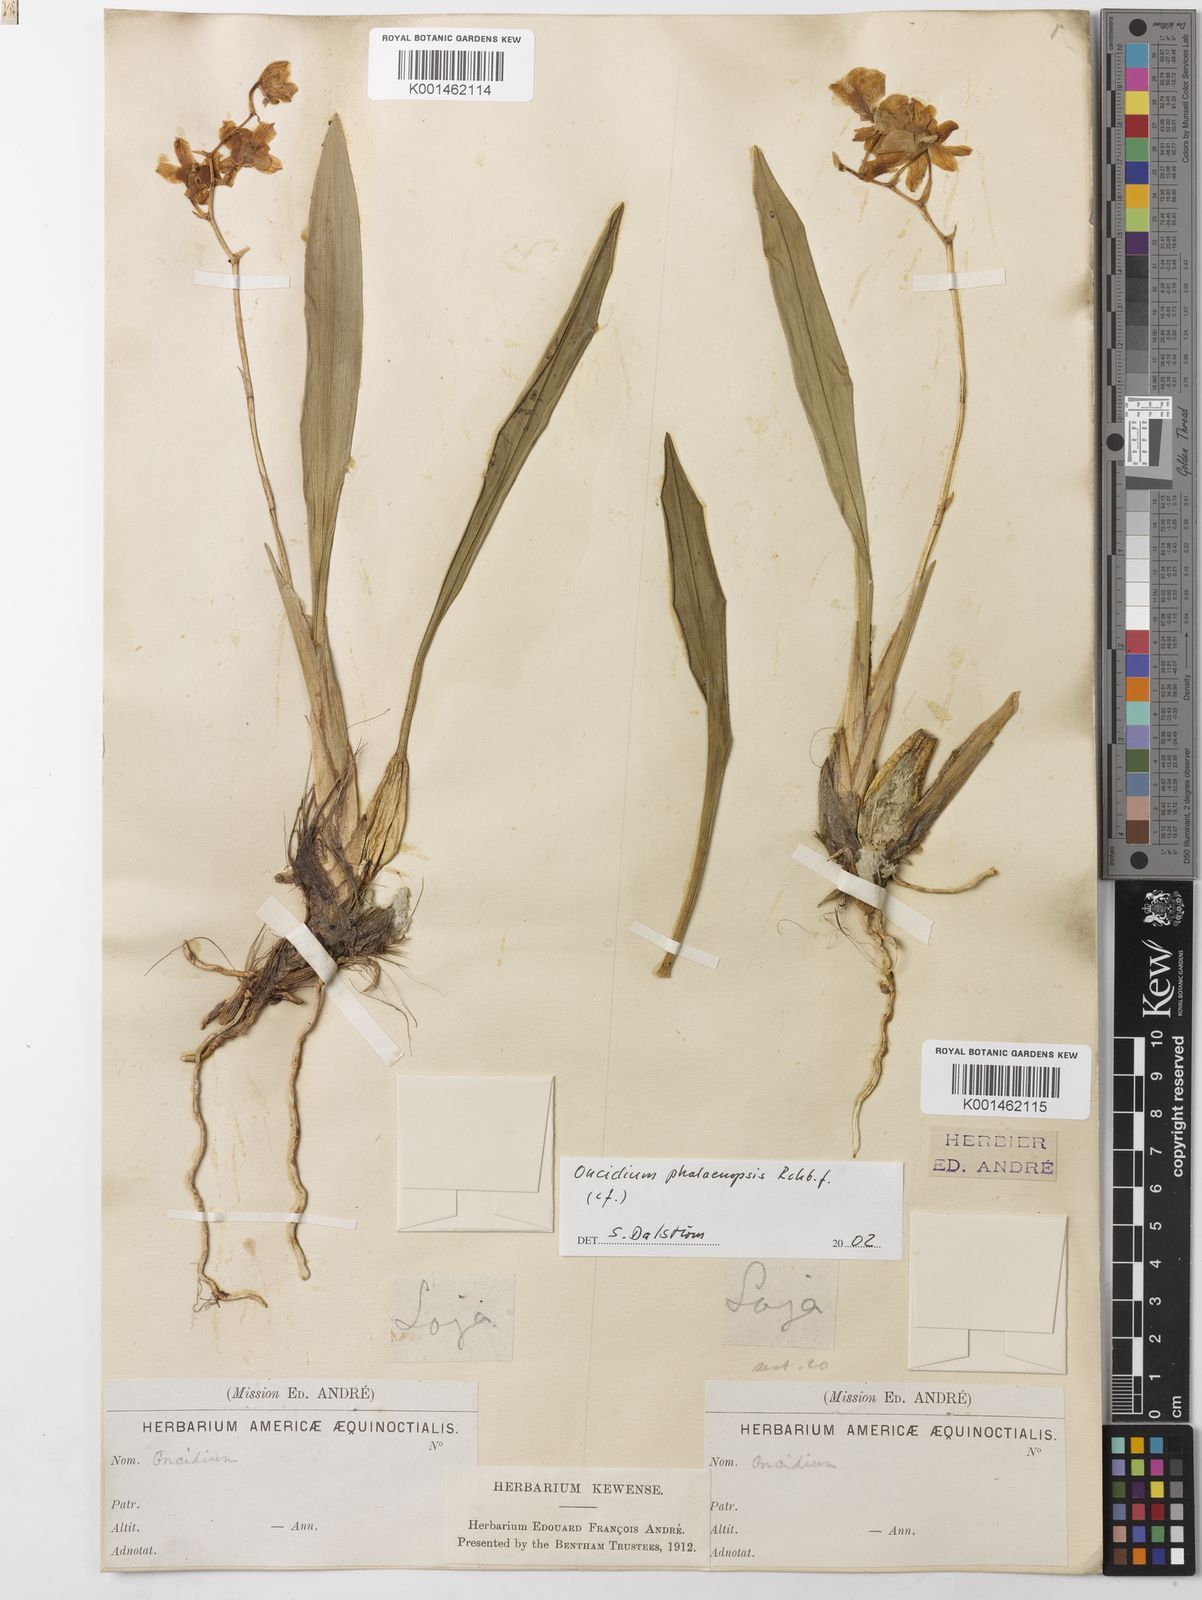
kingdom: Plantae
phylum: Tracheophyta
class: Liliopsida
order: Asparagales
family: Orchidaceae
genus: Caucaea
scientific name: Caucaea phalaenopsis
